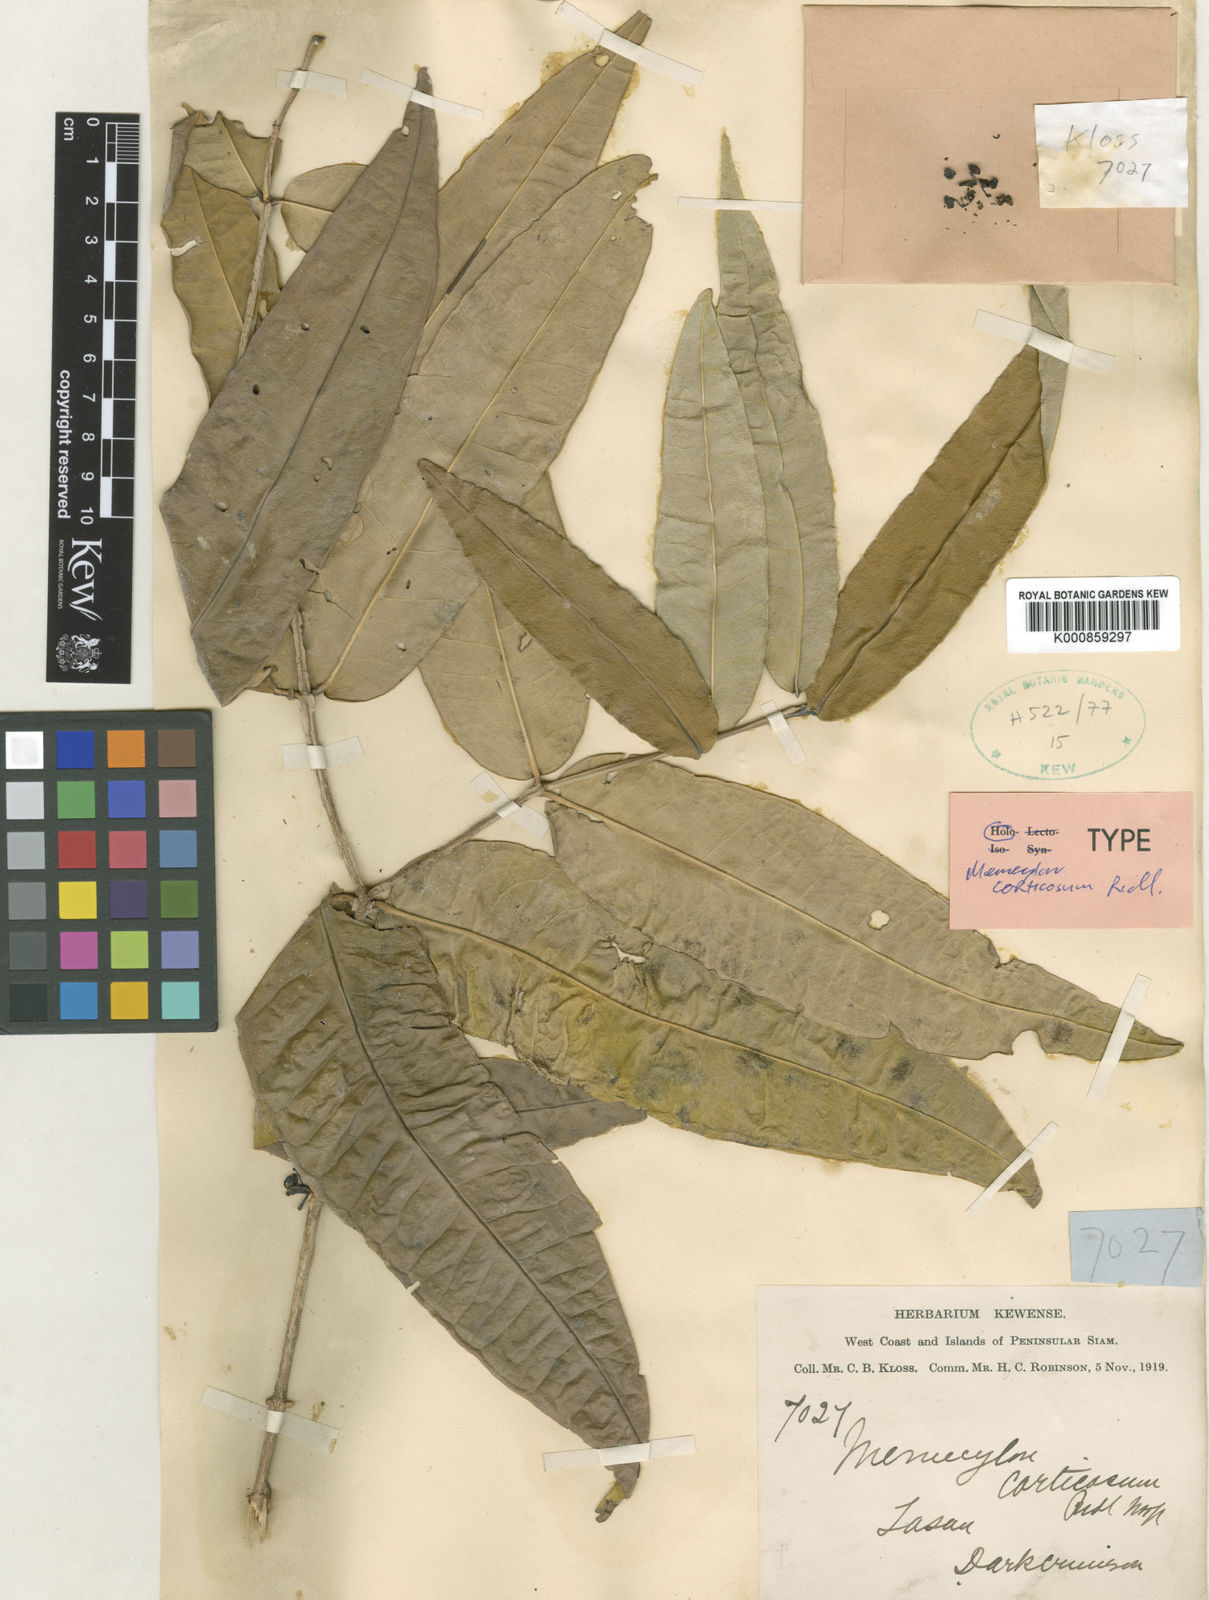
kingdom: Plantae
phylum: Tracheophyta
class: Magnoliopsida
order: Myrtales
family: Melastomataceae
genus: Memecylon
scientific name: Memecylon corticosum
